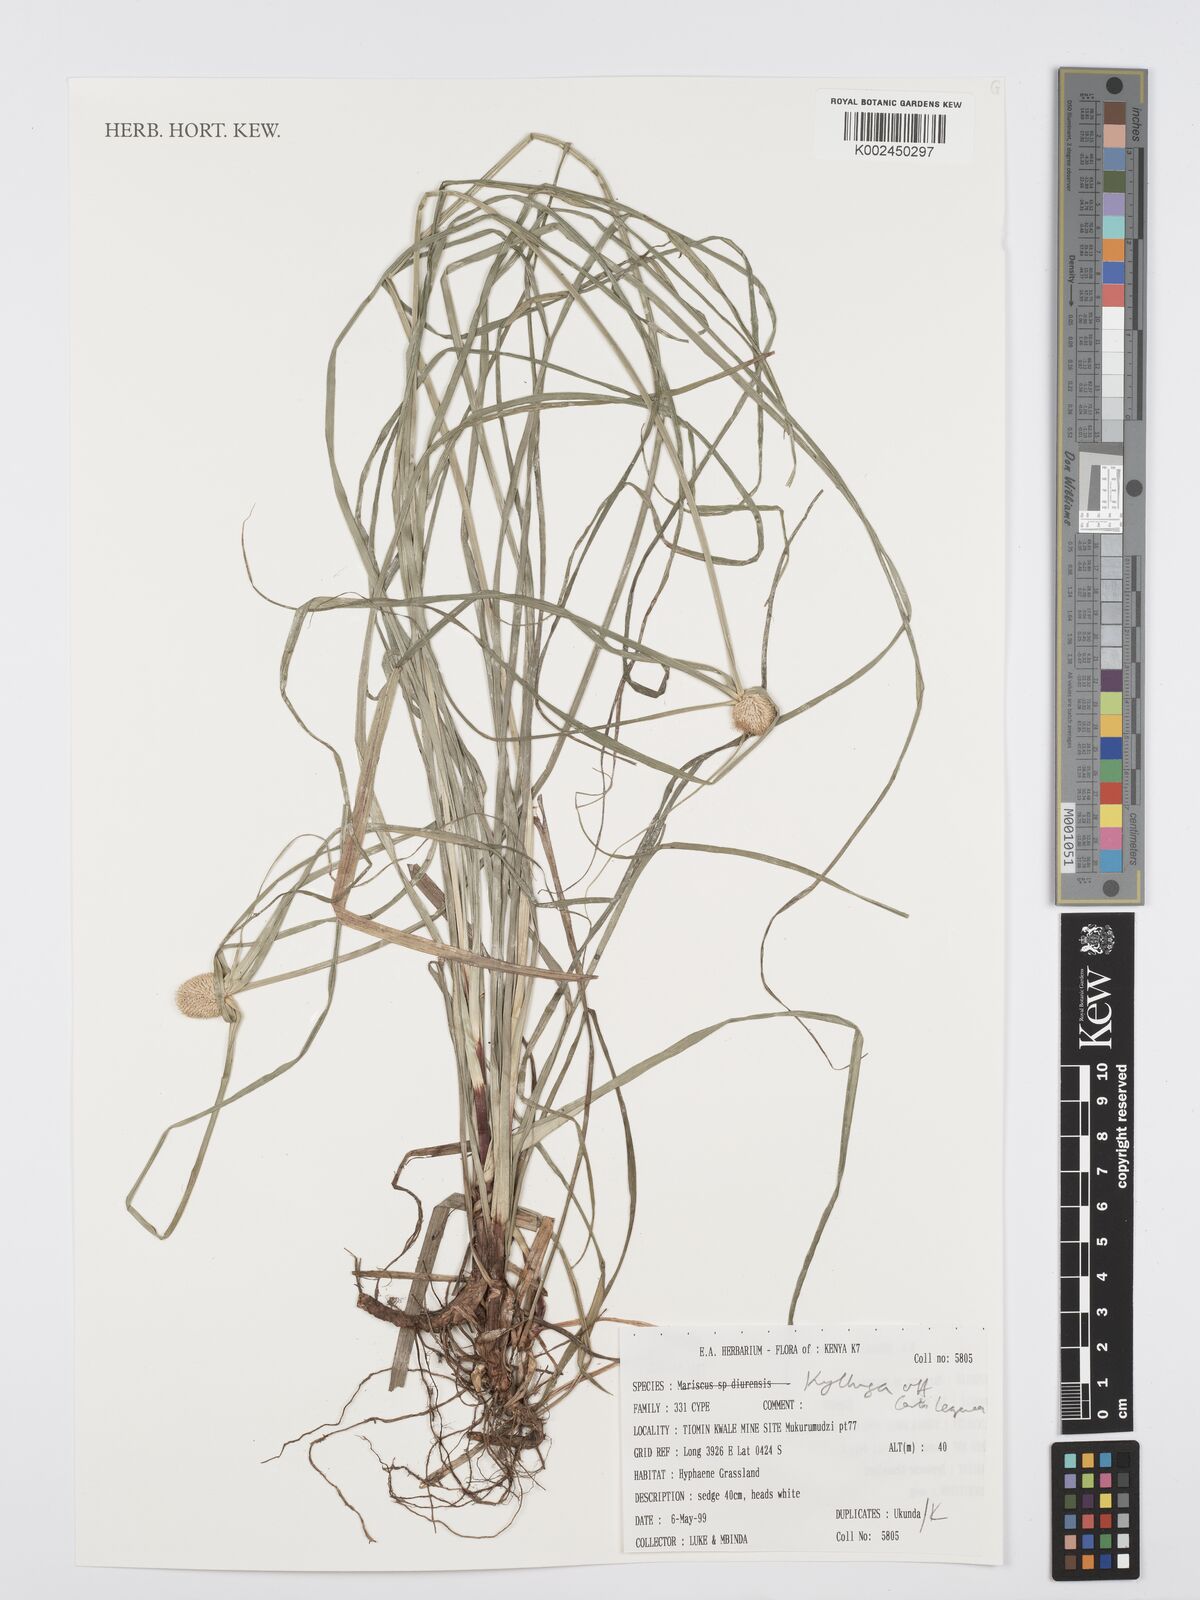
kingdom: Plantae
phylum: Tracheophyta
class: Liliopsida
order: Poales
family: Cyperaceae
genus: Cyperus
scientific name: Cyperus
